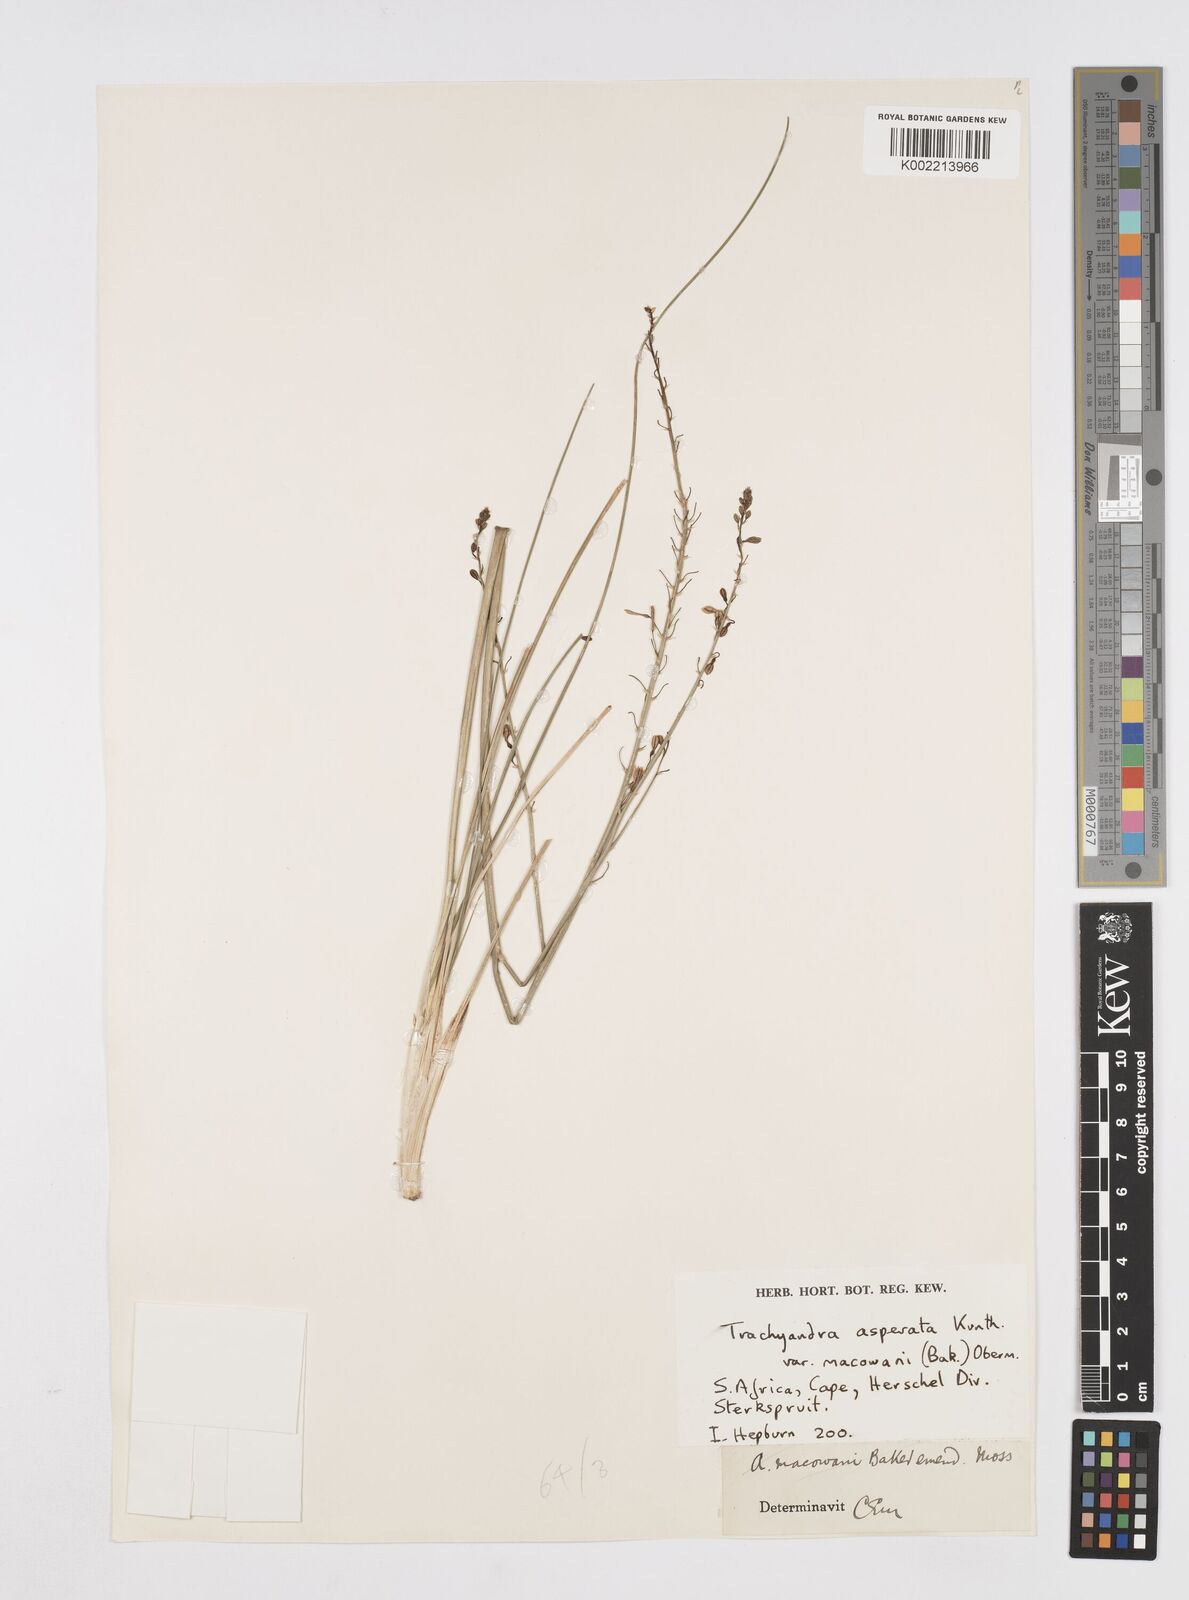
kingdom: Plantae
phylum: Tracheophyta
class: Liliopsida
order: Asparagales
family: Asphodelaceae
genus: Trachyandra
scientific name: Trachyandra asperata
